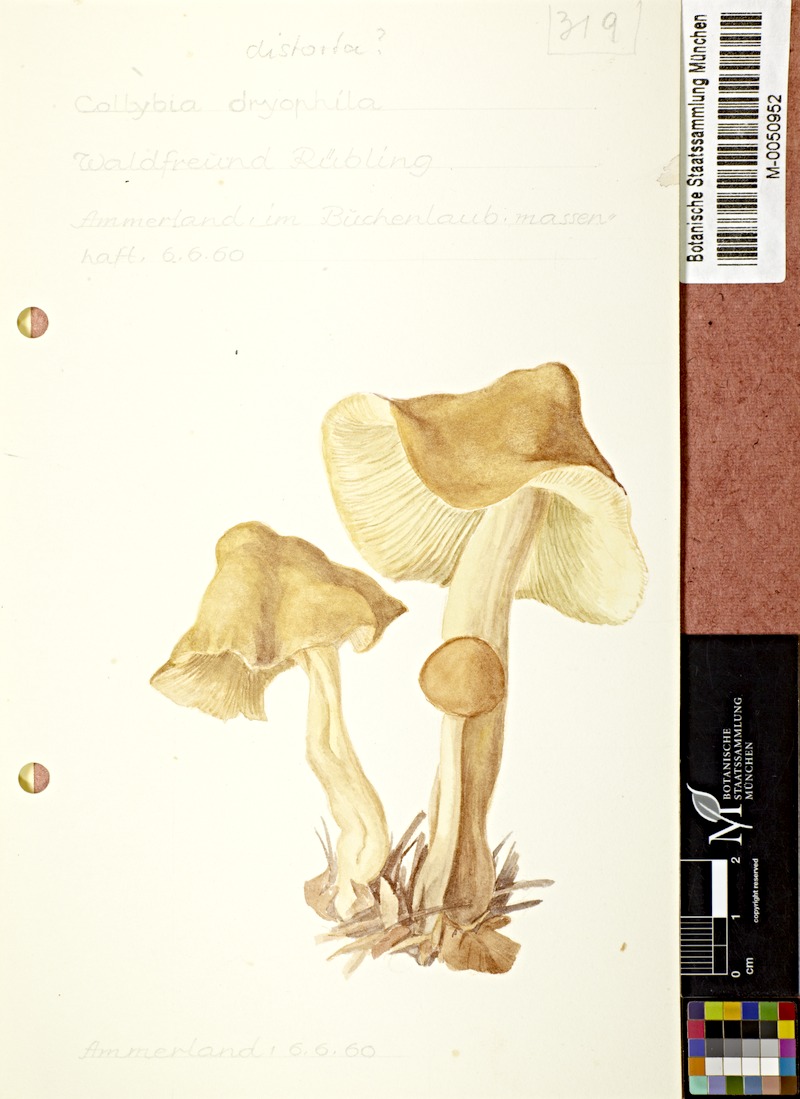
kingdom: Fungi
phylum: Basidiomycota
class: Agaricomycetes
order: Agaricales
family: Omphalotaceae
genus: Rhodocollybia
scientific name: Rhodocollybia prolixa
